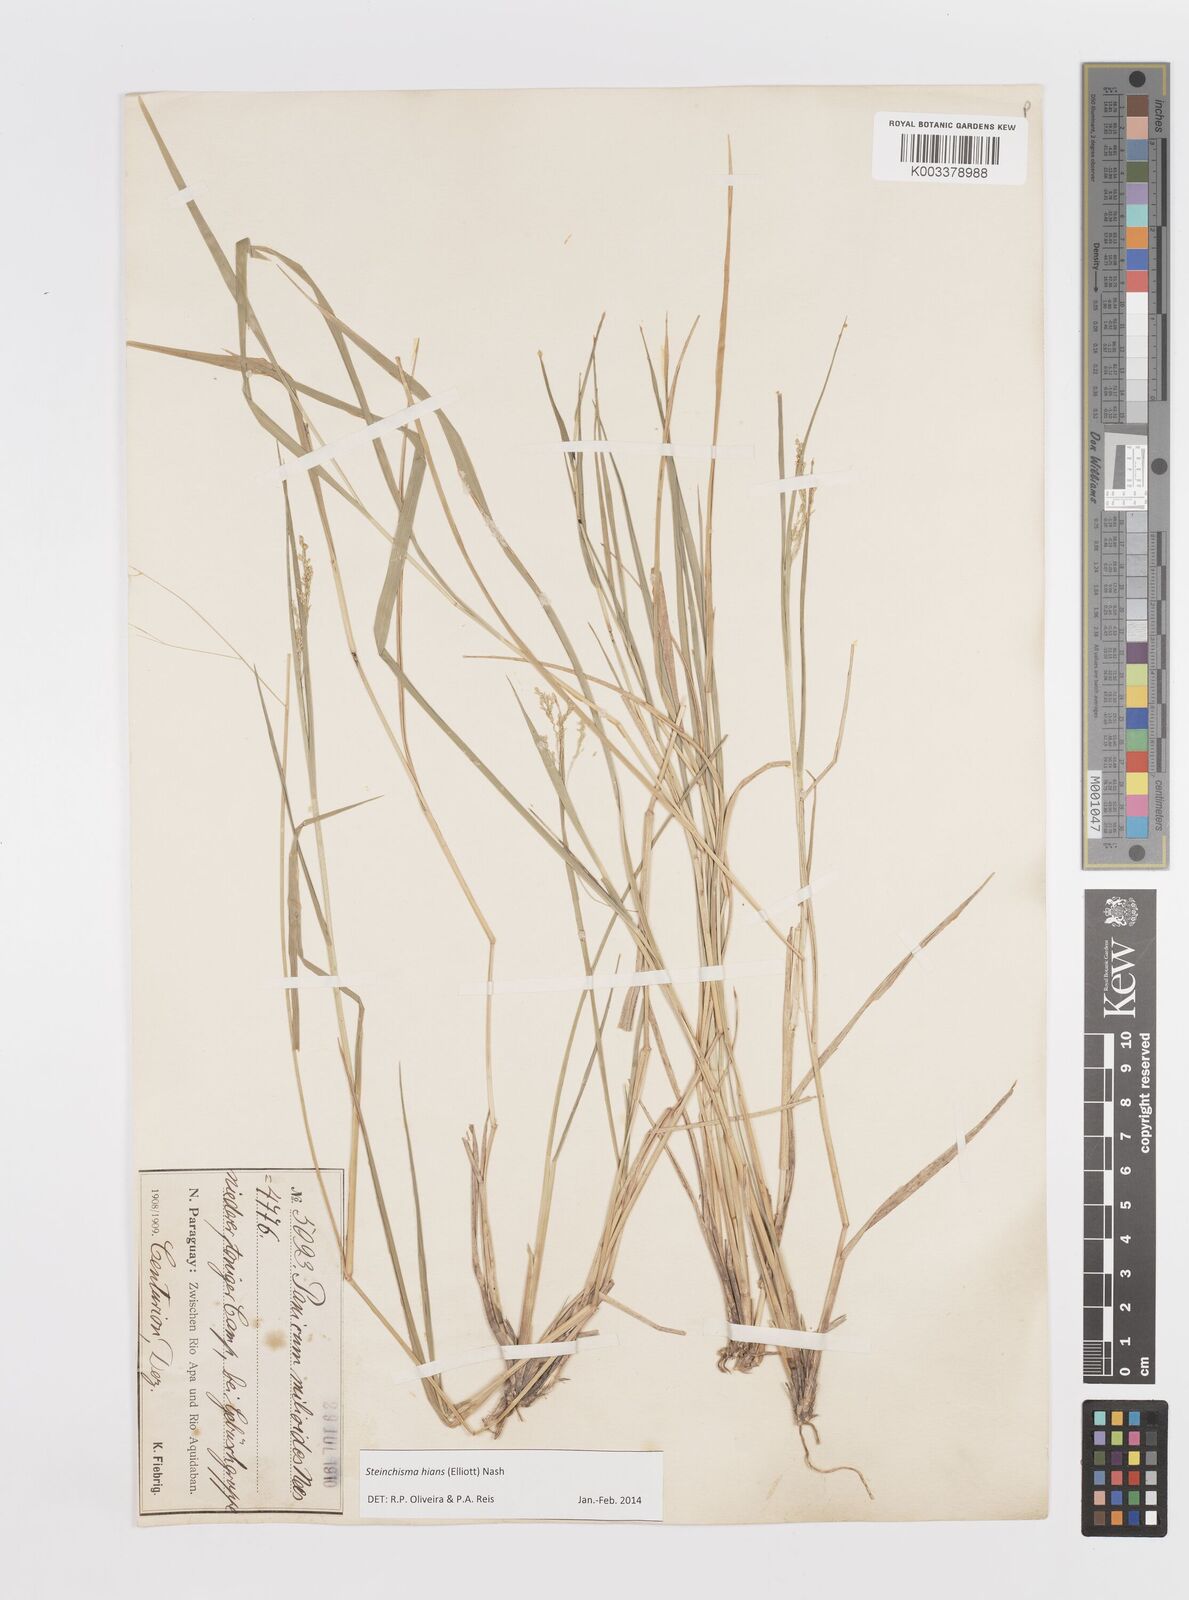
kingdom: Plantae
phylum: Tracheophyta
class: Liliopsida
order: Poales
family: Poaceae
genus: Steinchisma
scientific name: Steinchisma hians
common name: Gaping panic grass
